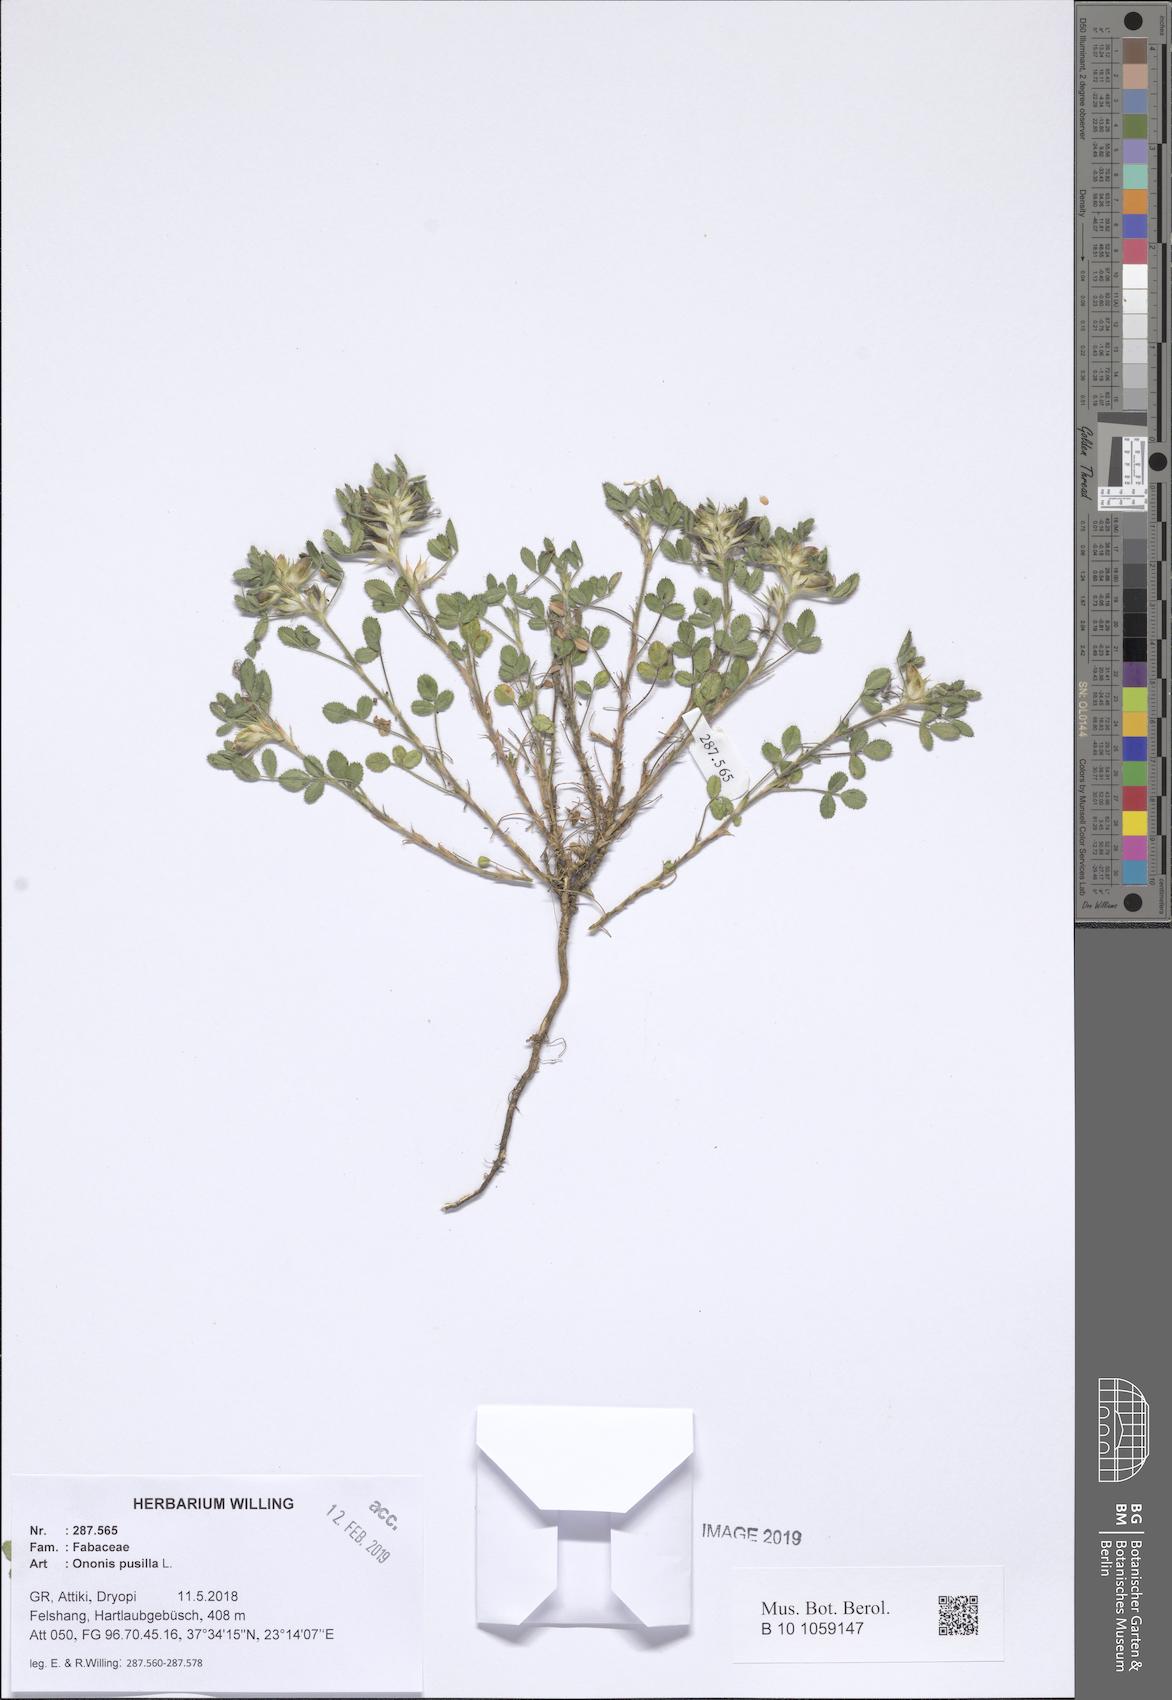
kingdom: Plantae
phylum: Tracheophyta
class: Magnoliopsida
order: Fabales
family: Fabaceae
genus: Ononis
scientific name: Ononis pusilla
